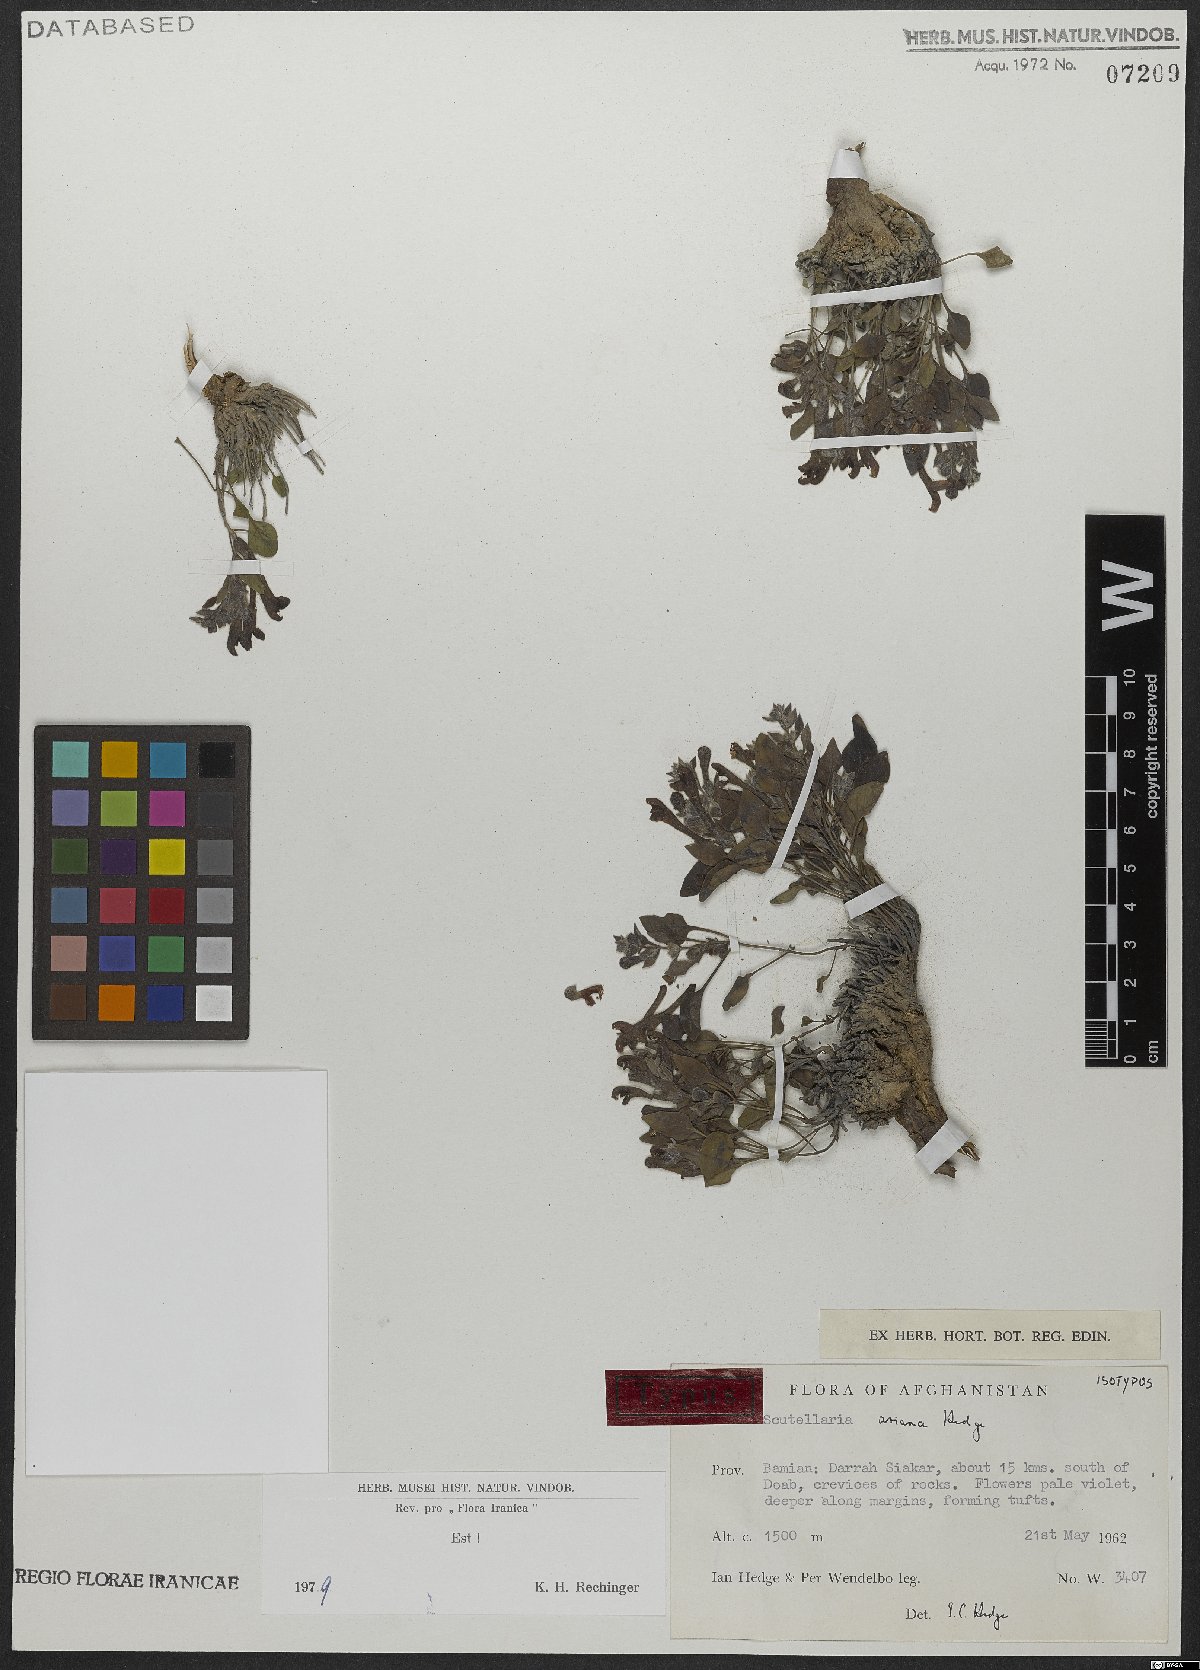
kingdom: Plantae
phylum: Tracheophyta
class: Magnoliopsida
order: Lamiales
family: Lamiaceae
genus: Scutellaria
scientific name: Scutellaria ariana
